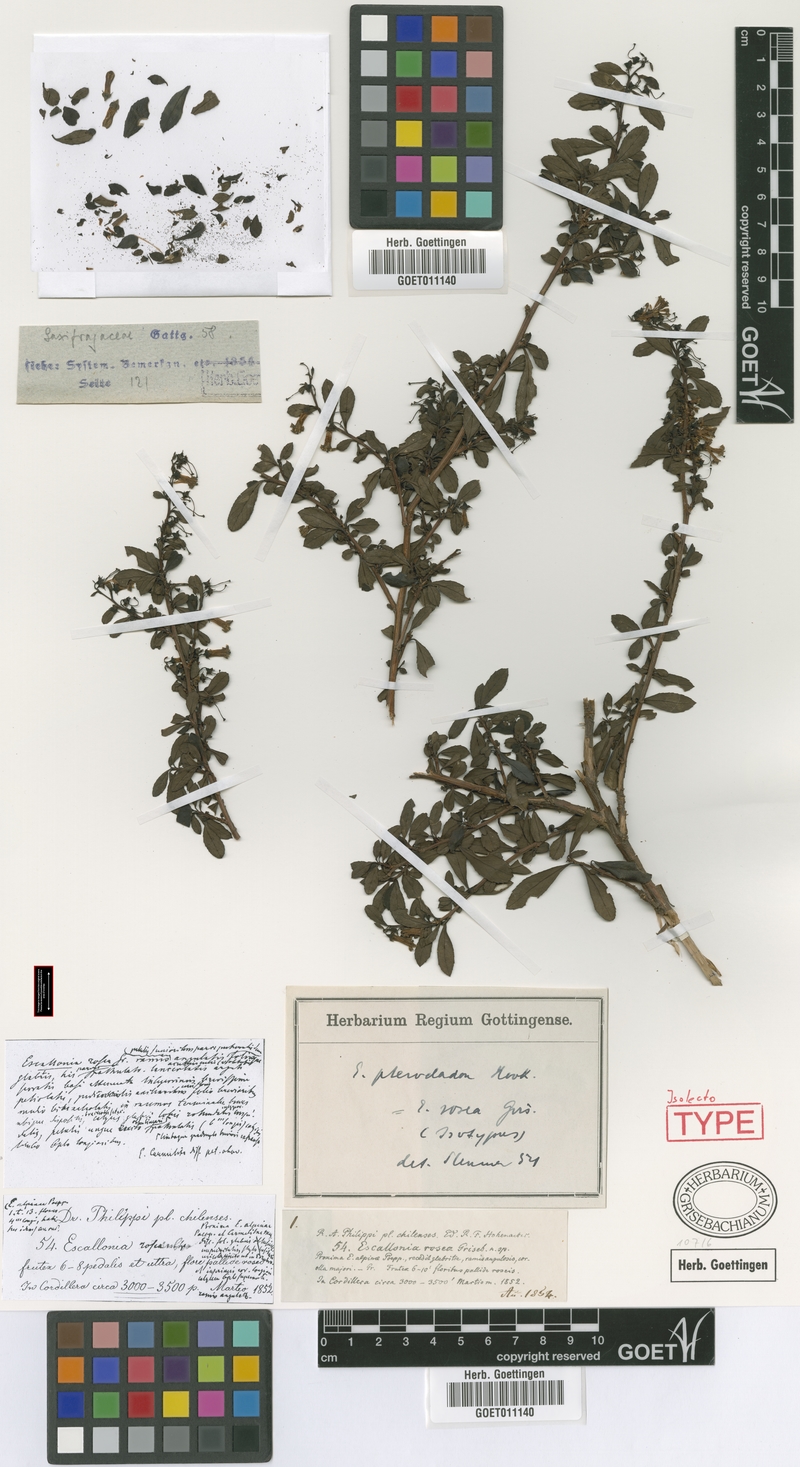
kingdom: Plantae
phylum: Tracheophyta
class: Magnoliopsida
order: Escalloniales
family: Escalloniaceae
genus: Escallonia
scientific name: Escallonia alpina
